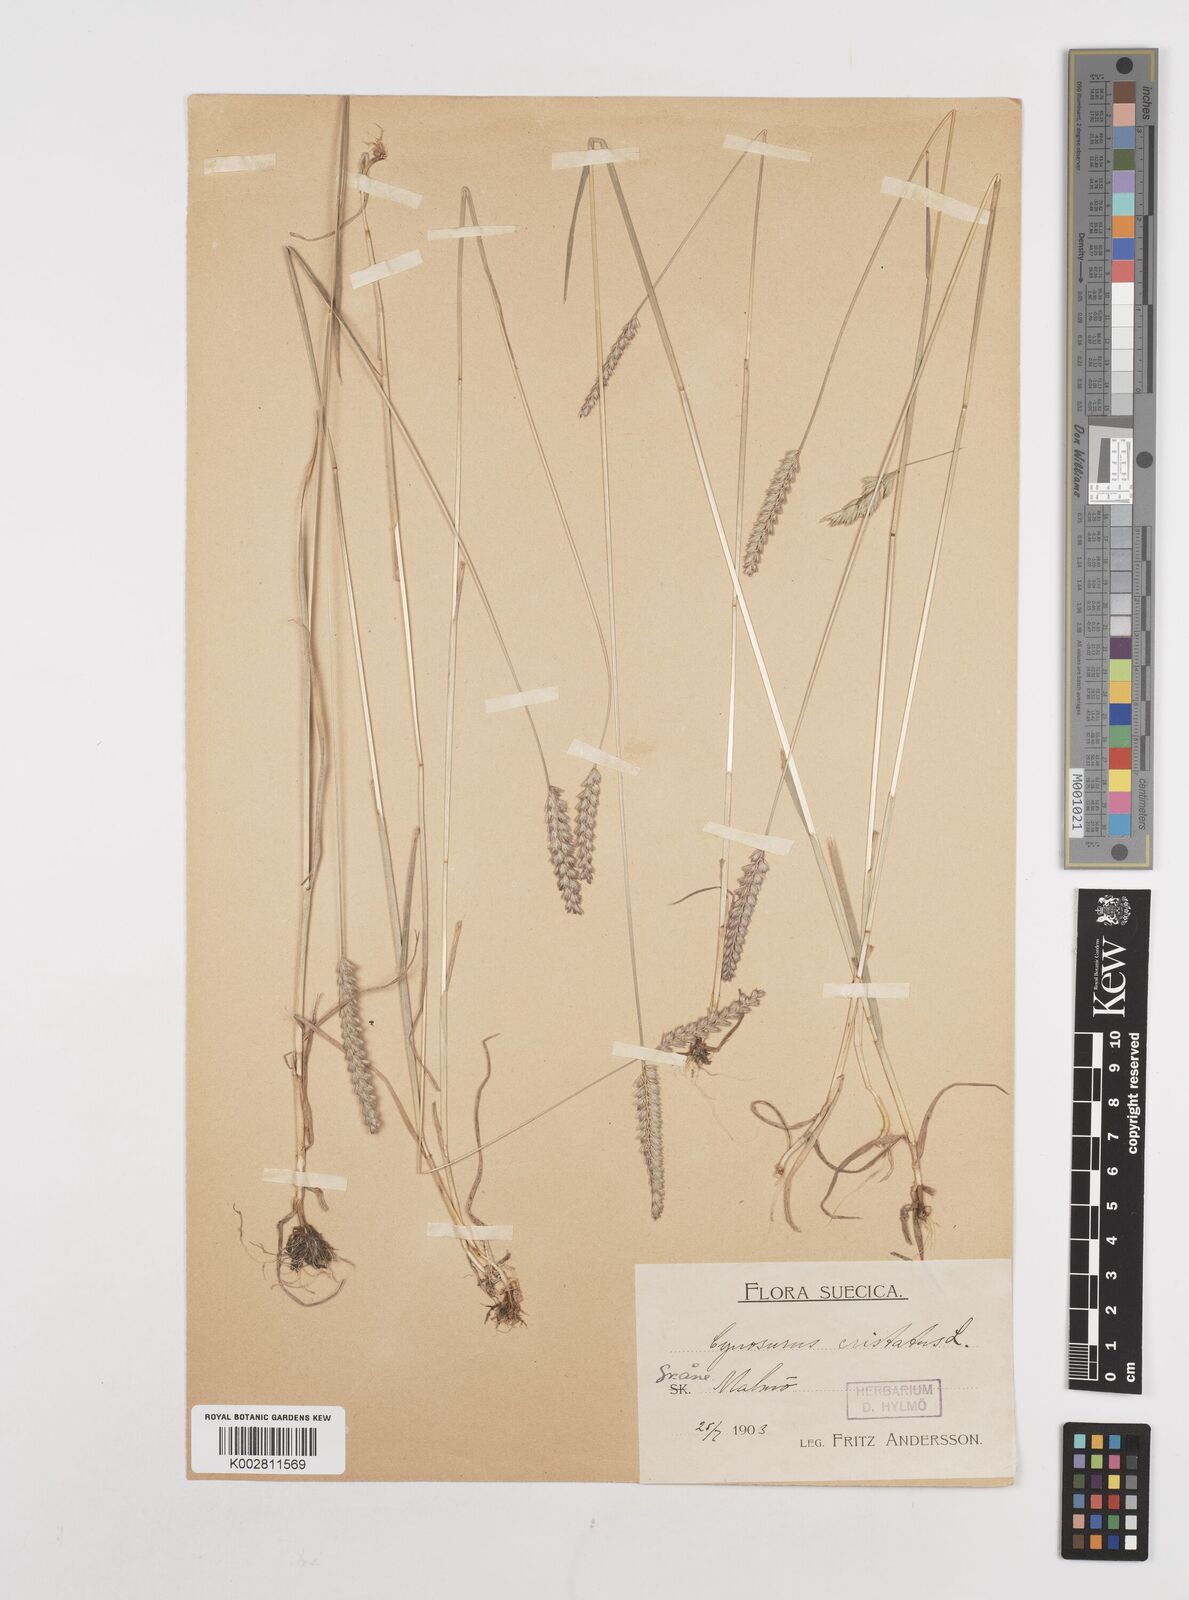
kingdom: Plantae
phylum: Tracheophyta
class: Liliopsida
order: Poales
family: Poaceae
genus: Cynosurus
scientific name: Cynosurus cristatus
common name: Crested dog's-tail
